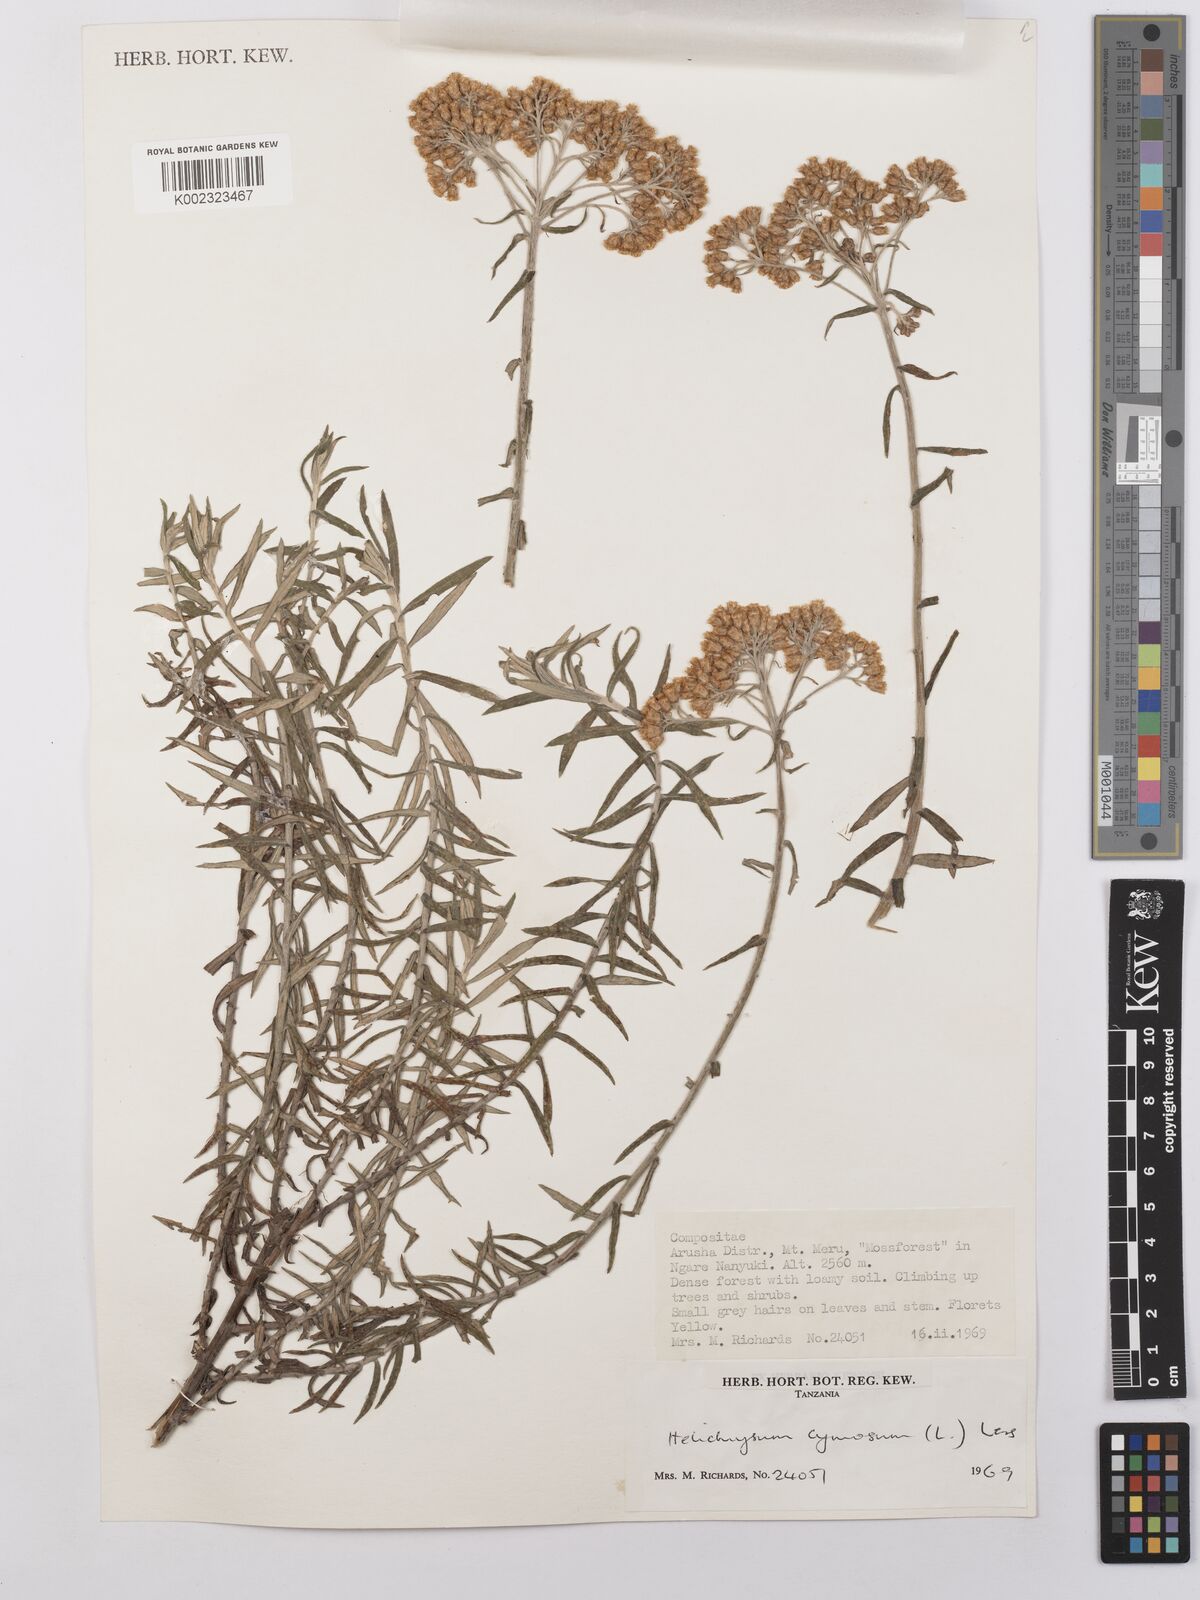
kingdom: Plantae
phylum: Tracheophyta
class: Magnoliopsida
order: Asterales
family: Asteraceae
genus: Helichrysum
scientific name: Helichrysum forskahlii
